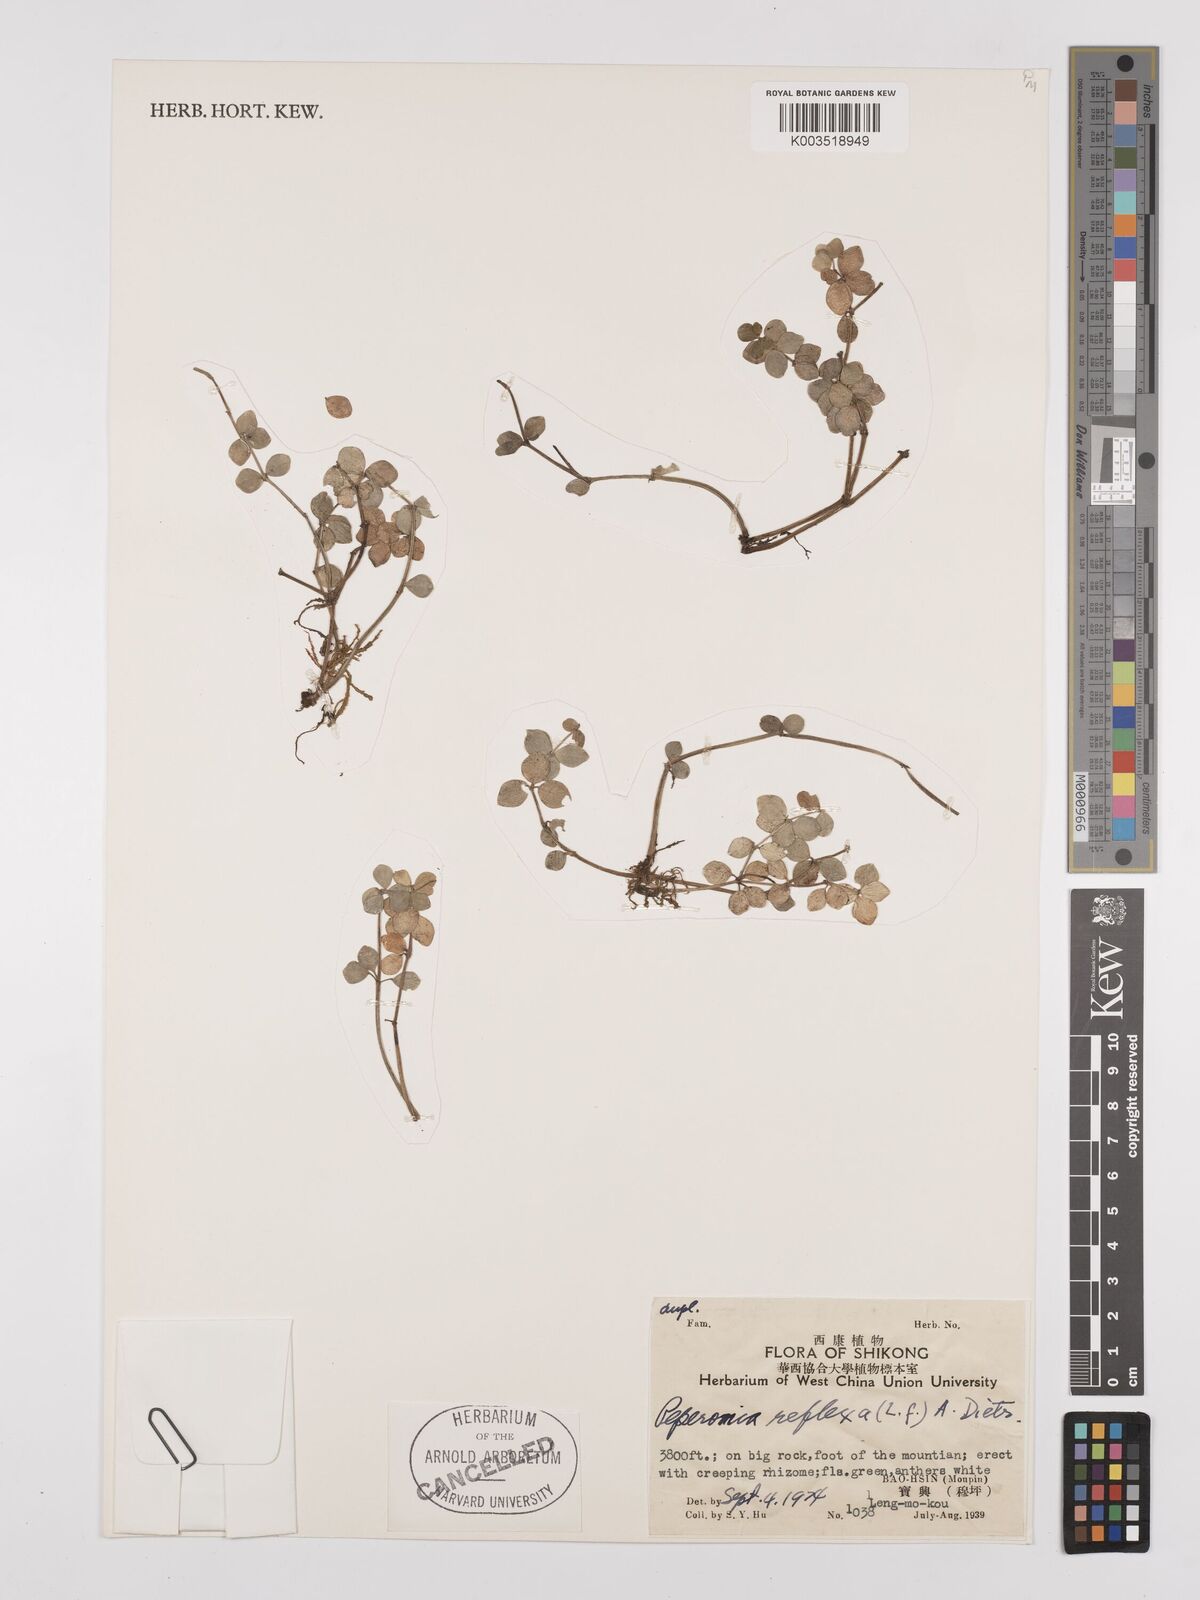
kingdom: Plantae
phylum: Tracheophyta
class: Magnoliopsida
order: Piperales
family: Piperaceae
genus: Peperomia
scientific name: Peperomia tetraphylla
